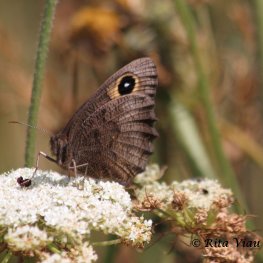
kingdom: Animalia
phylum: Arthropoda
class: Insecta
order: Lepidoptera
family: Nymphalidae
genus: Cercyonis
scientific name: Cercyonis pegala
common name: Common Wood-Nymph
